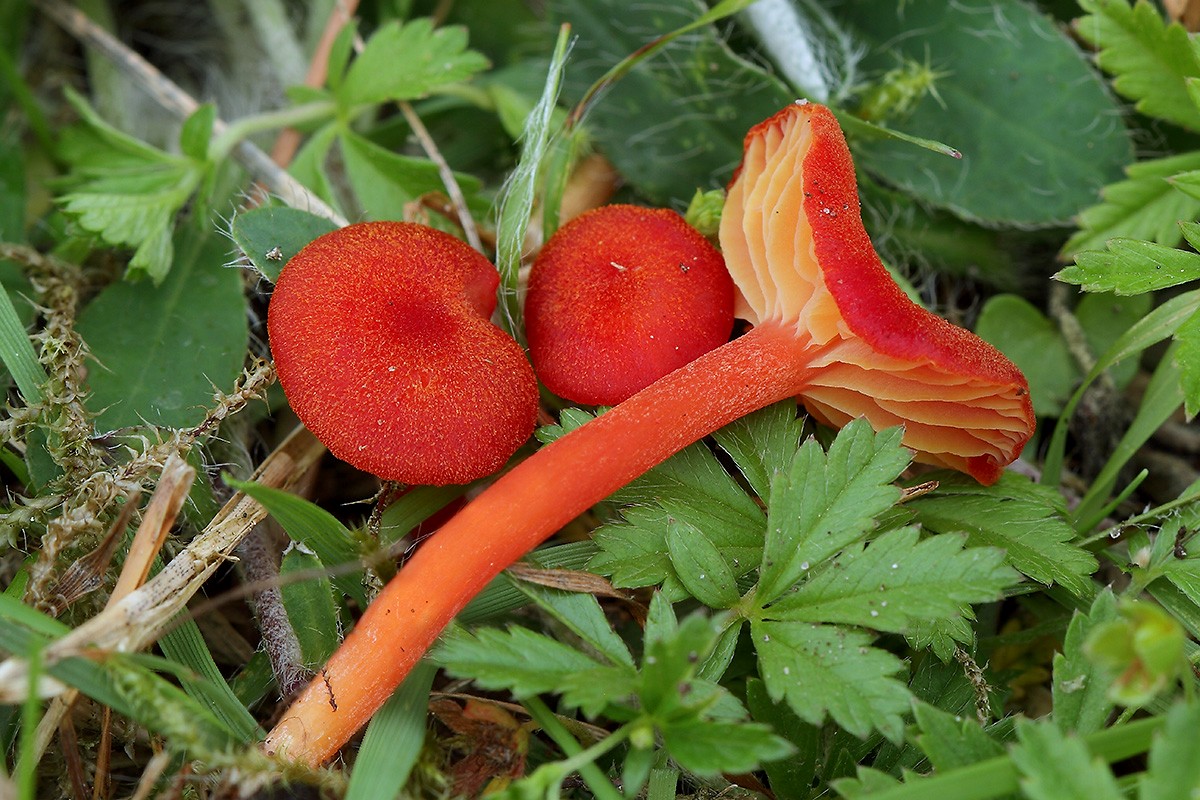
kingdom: Fungi
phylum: Basidiomycota
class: Agaricomycetes
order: Agaricales
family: Hygrophoraceae
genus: Hygrocybe
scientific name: Hygrocybe helobia
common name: hvidløgs-vokshat
